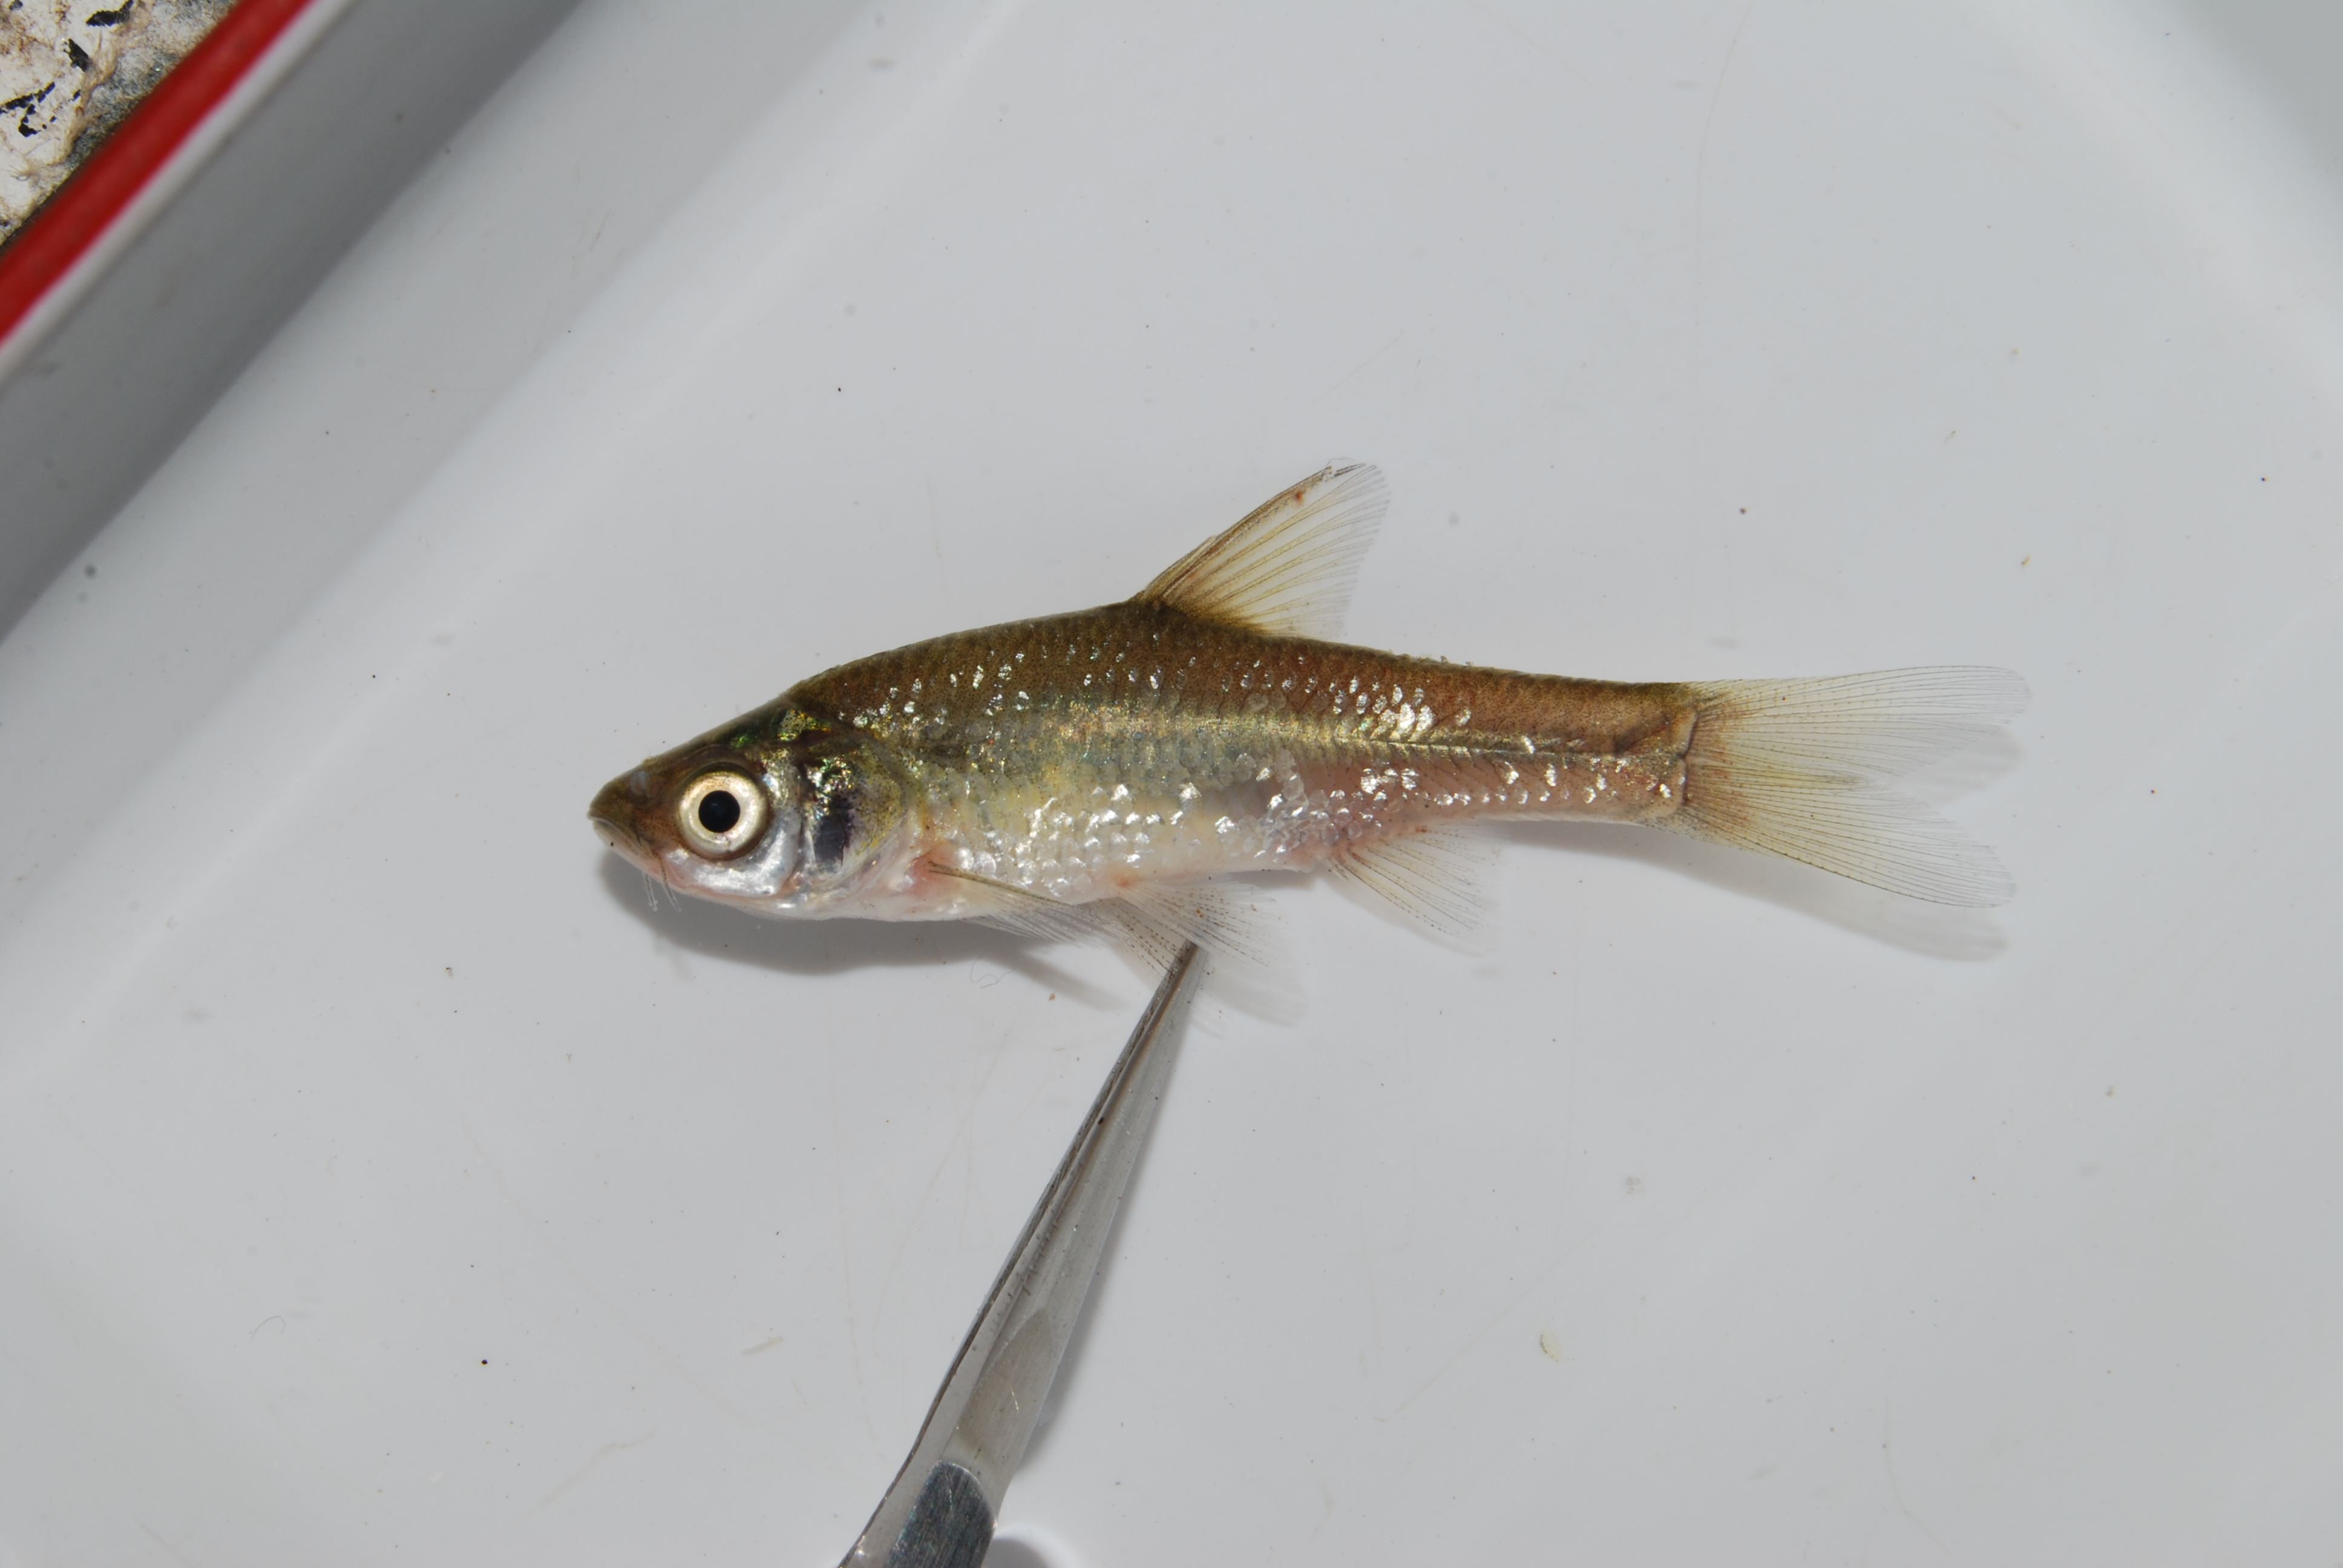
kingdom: Animalia
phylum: Chordata
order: Cypriniformes
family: Cyprinidae
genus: Enteromius
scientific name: Enteromius paludinosus
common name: Straightfin barb
